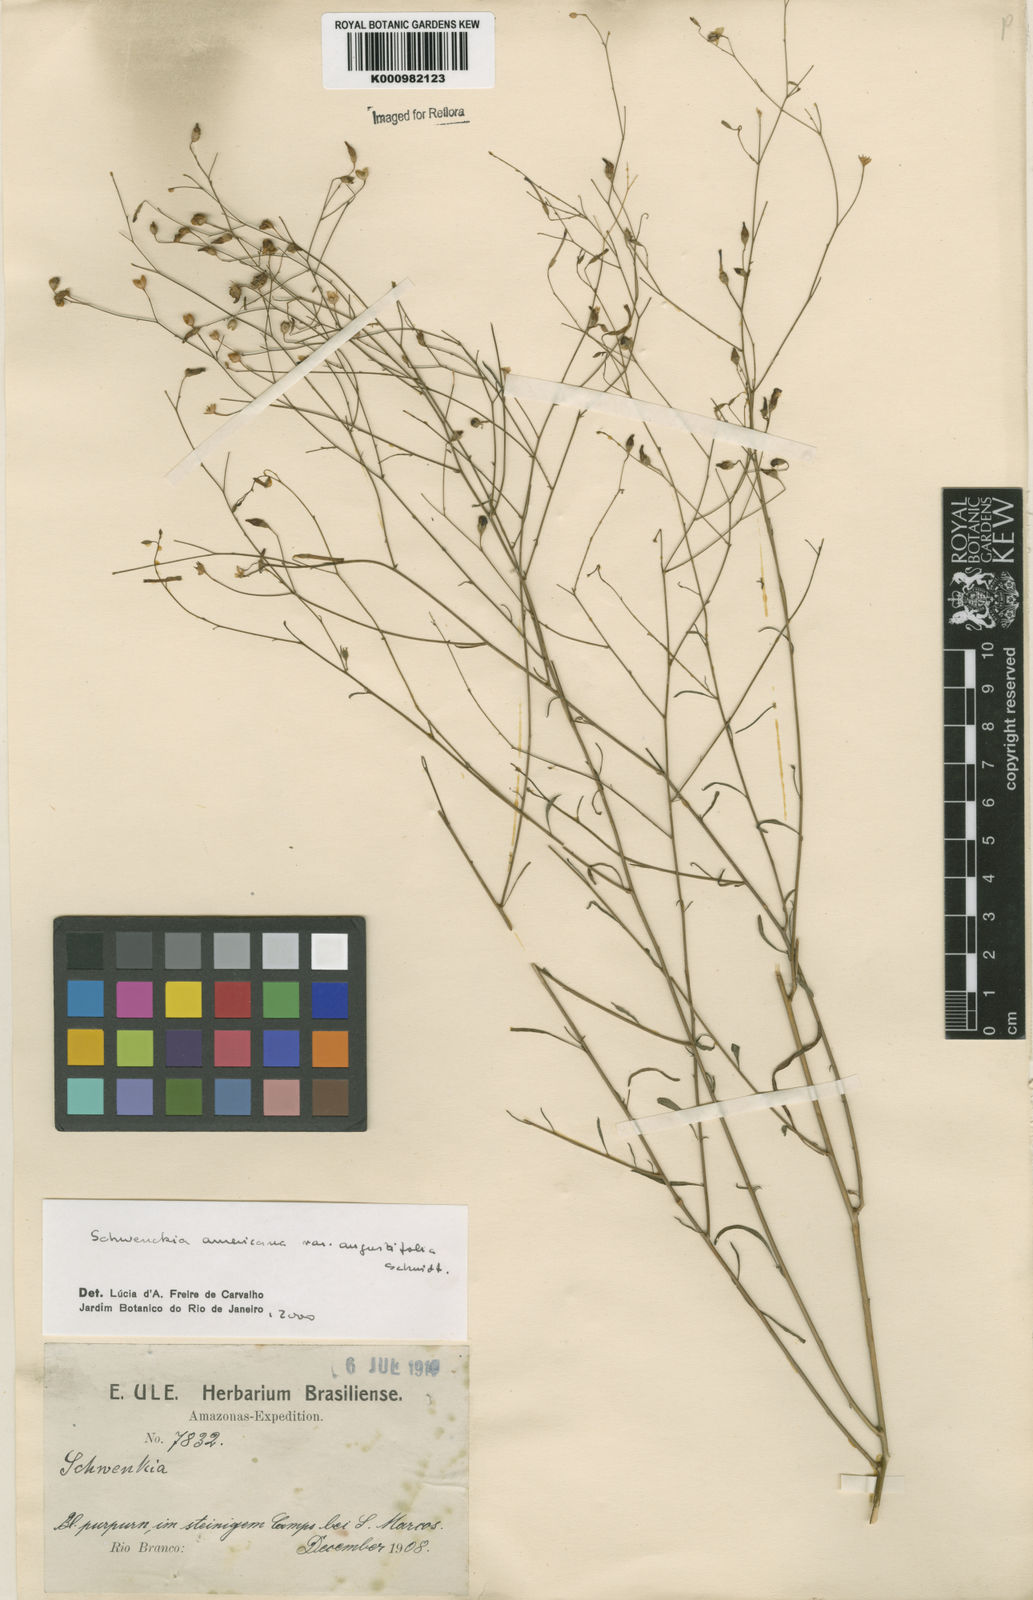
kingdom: Plantae
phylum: Tracheophyta
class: Magnoliopsida
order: Solanales
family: Solanaceae
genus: Schwenckia
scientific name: Schwenckia americana
